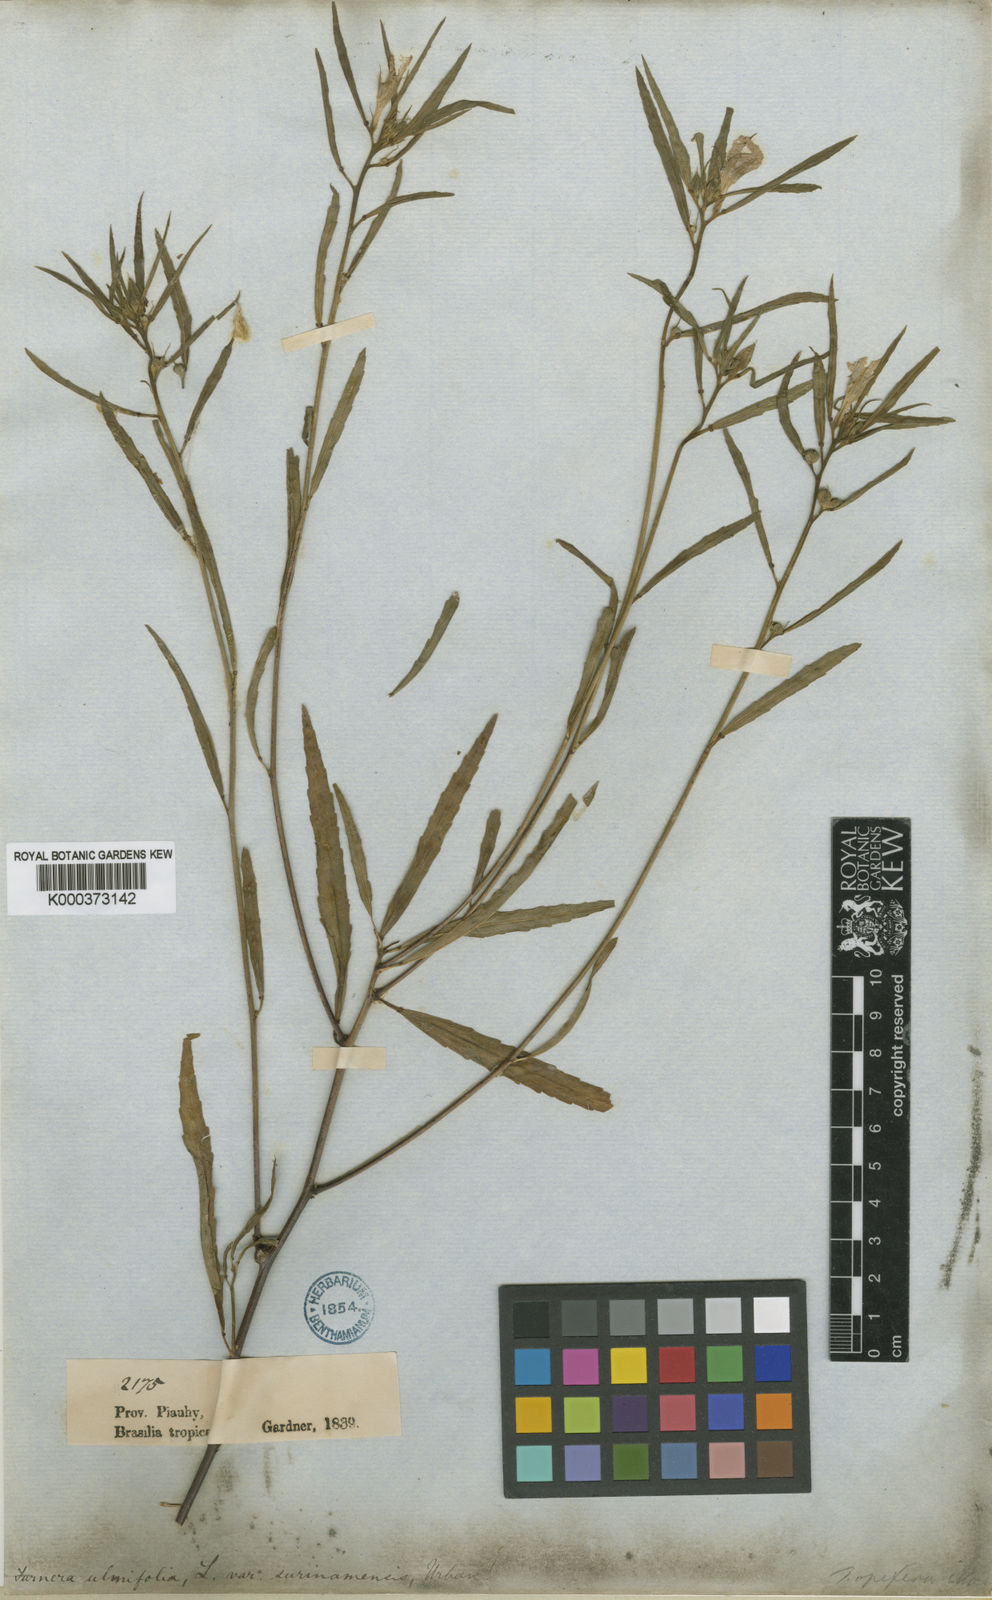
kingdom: Plantae
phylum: Tracheophyta
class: Magnoliopsida
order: Malpighiales
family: Turneraceae
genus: Turnera
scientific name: Turnera coerulea
